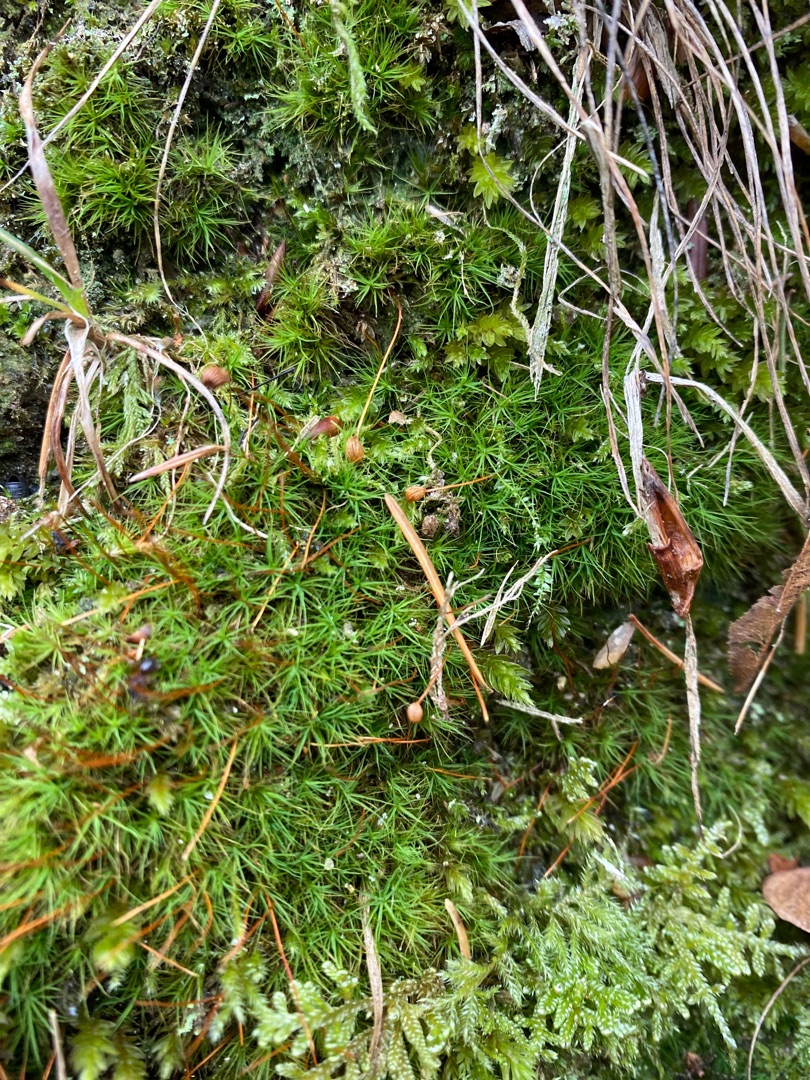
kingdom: Plantae
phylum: Bryophyta
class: Bryopsida
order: Bartramiales
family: Bartramiaceae
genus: Bartramia
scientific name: Bartramia ithyphylla
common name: Blågrøn kuglekapsel
